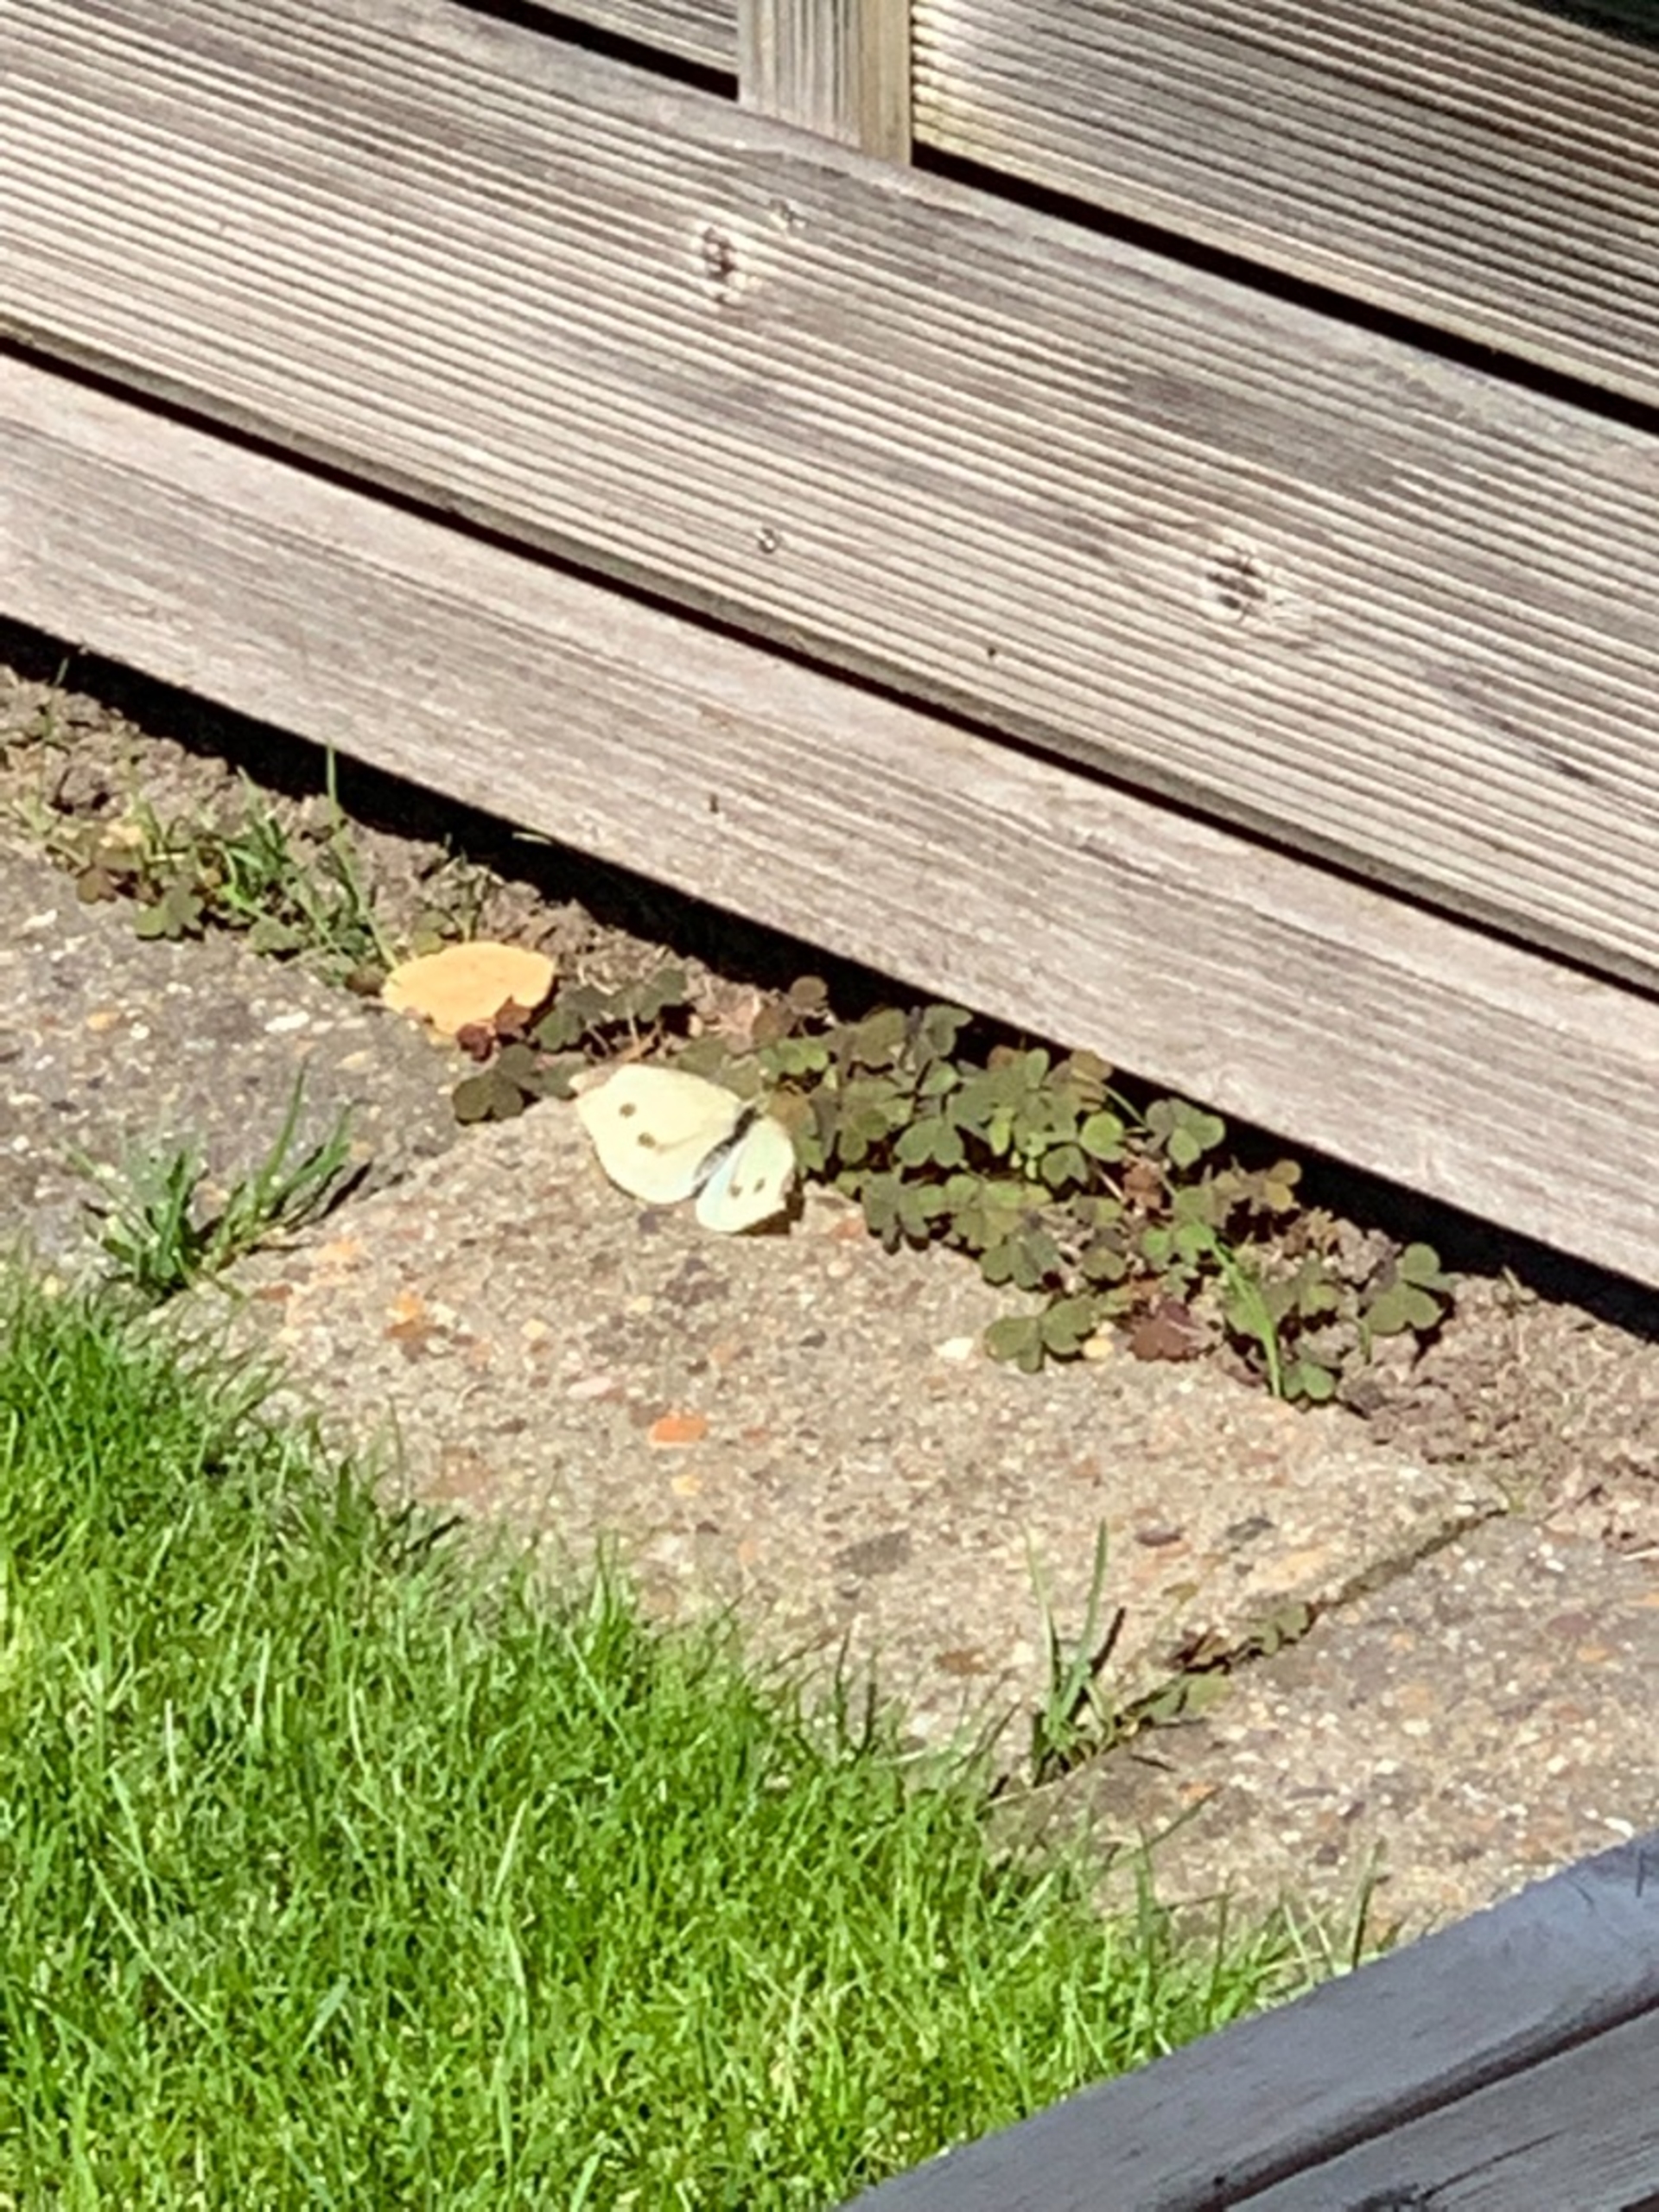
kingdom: Animalia
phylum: Arthropoda
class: Insecta
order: Lepidoptera
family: Pieridae
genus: Pieris
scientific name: Pieris rapae
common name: Lille kålsommerfugl
